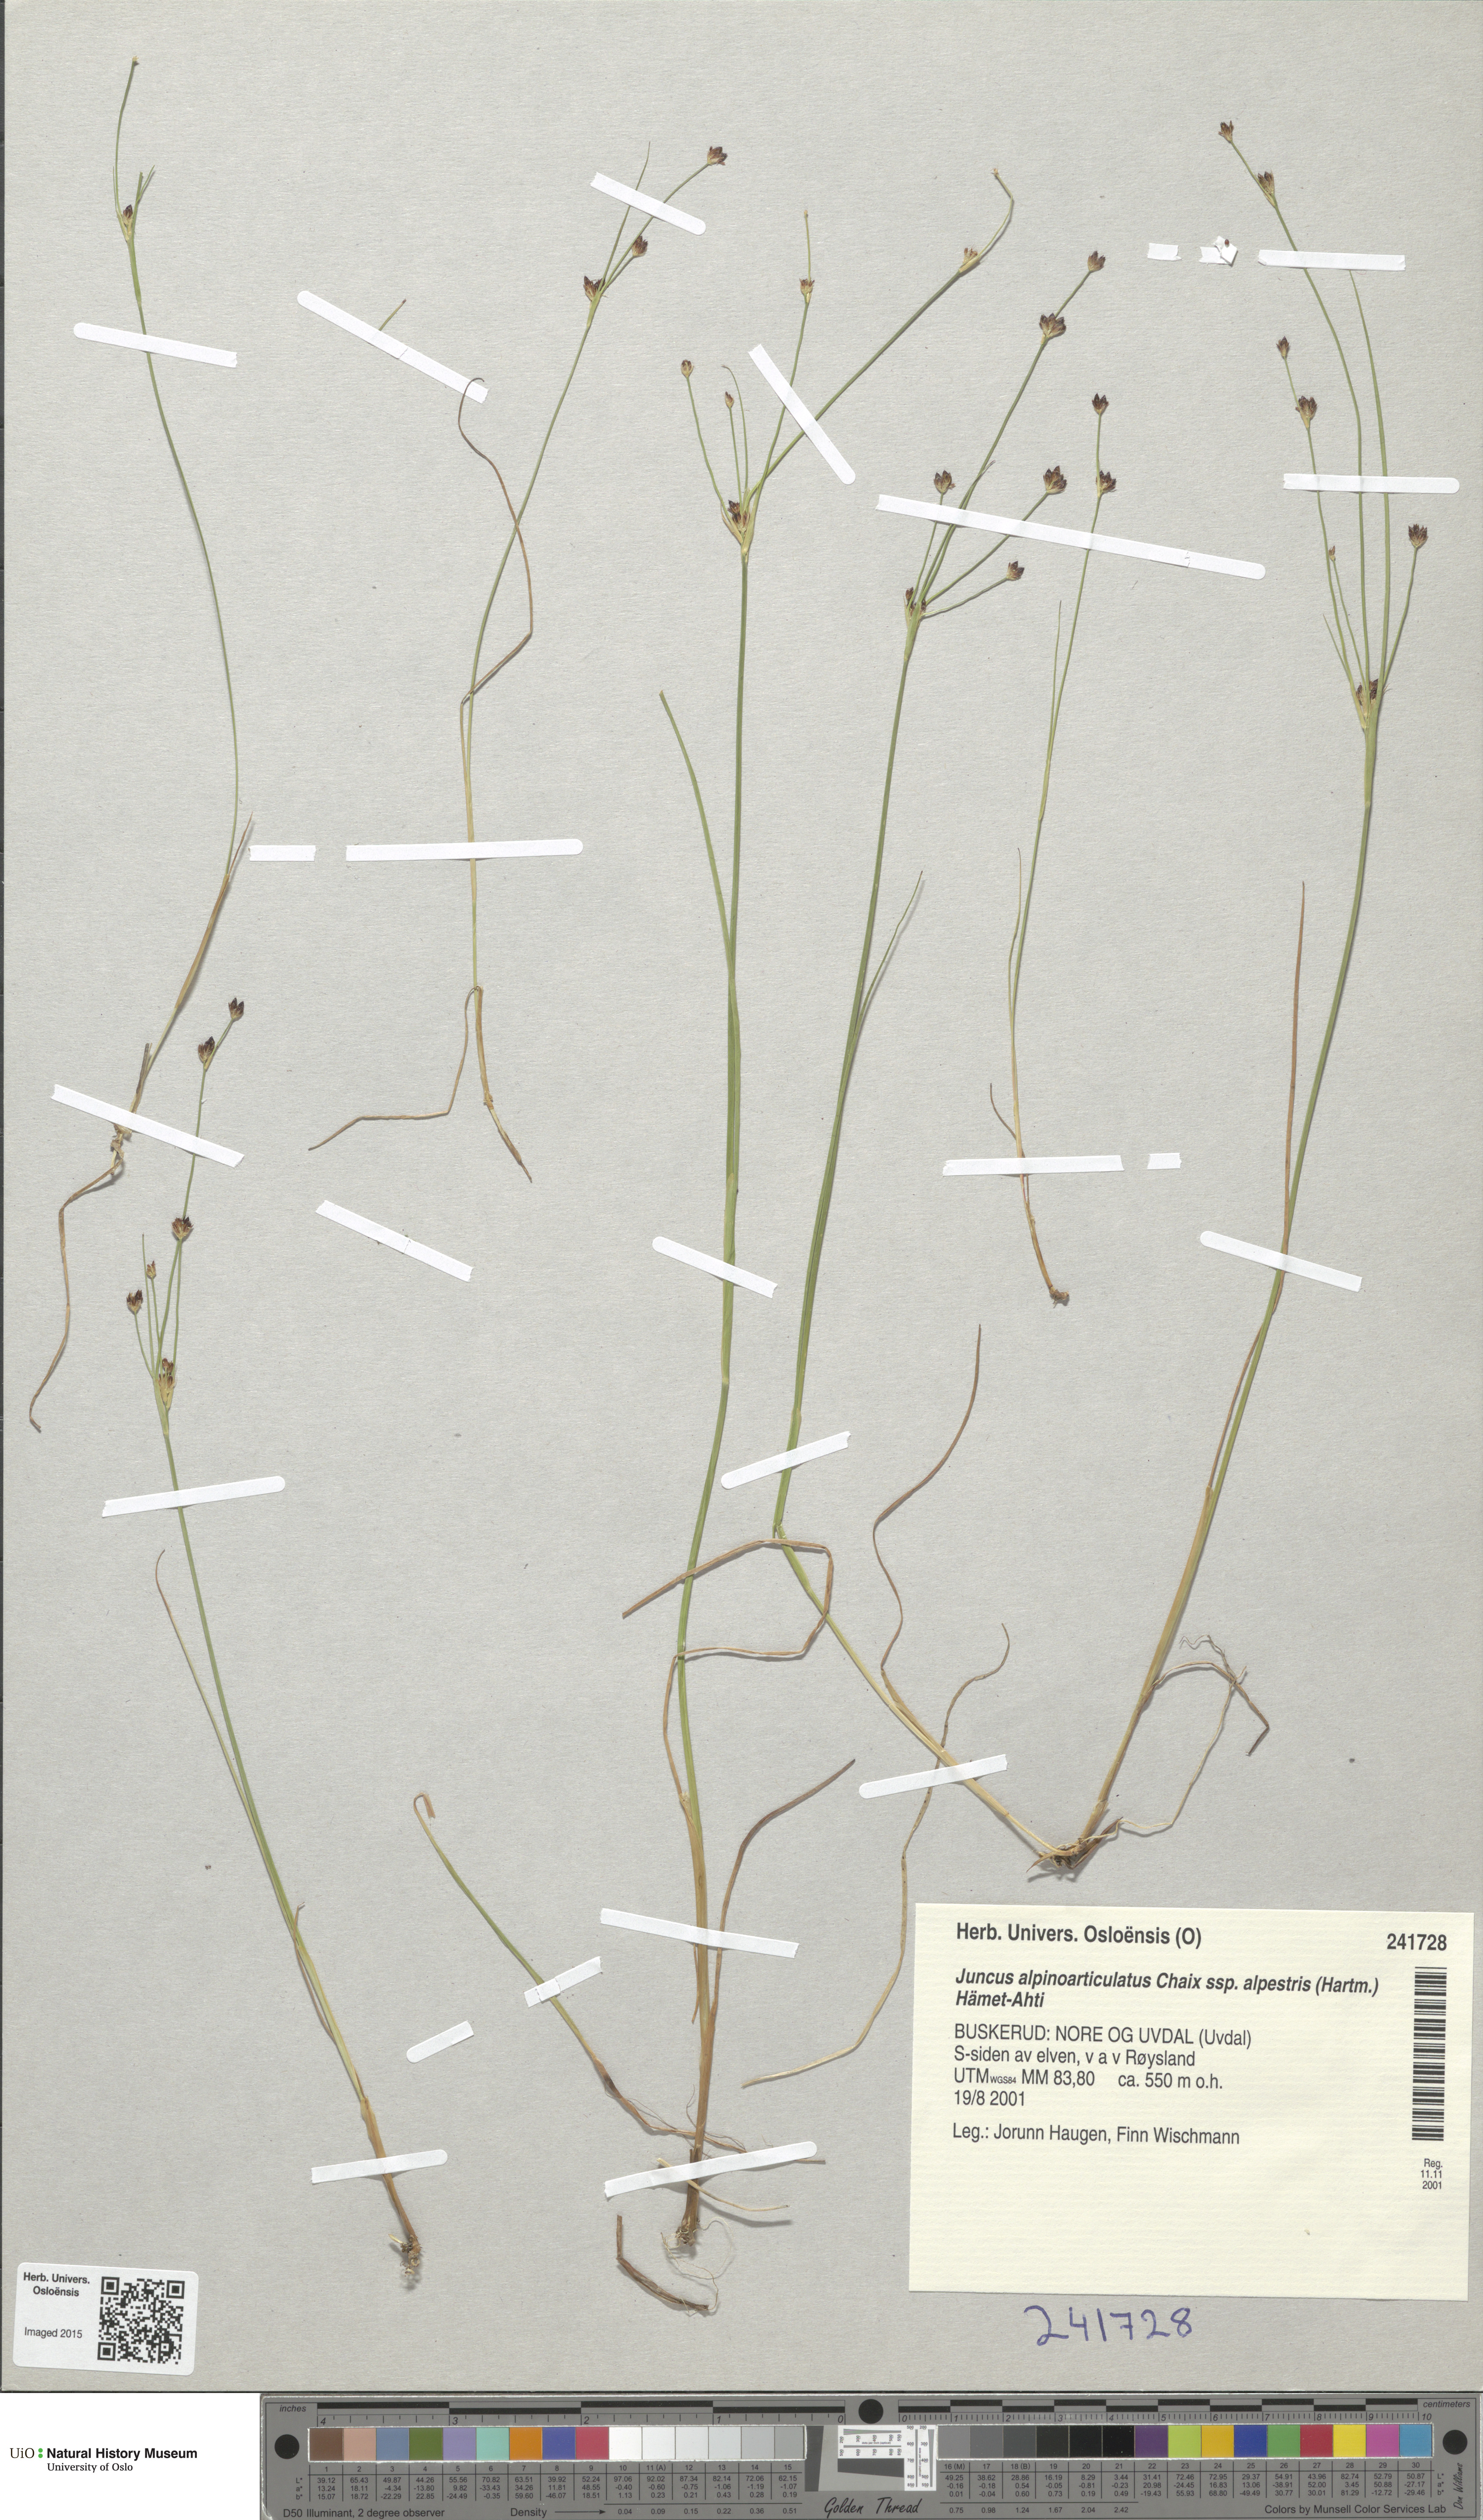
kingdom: Plantae
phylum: Tracheophyta
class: Liliopsida
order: Poales
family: Juncaceae
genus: Juncus
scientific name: Juncus alpinoarticulatus
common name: Alpine rush
